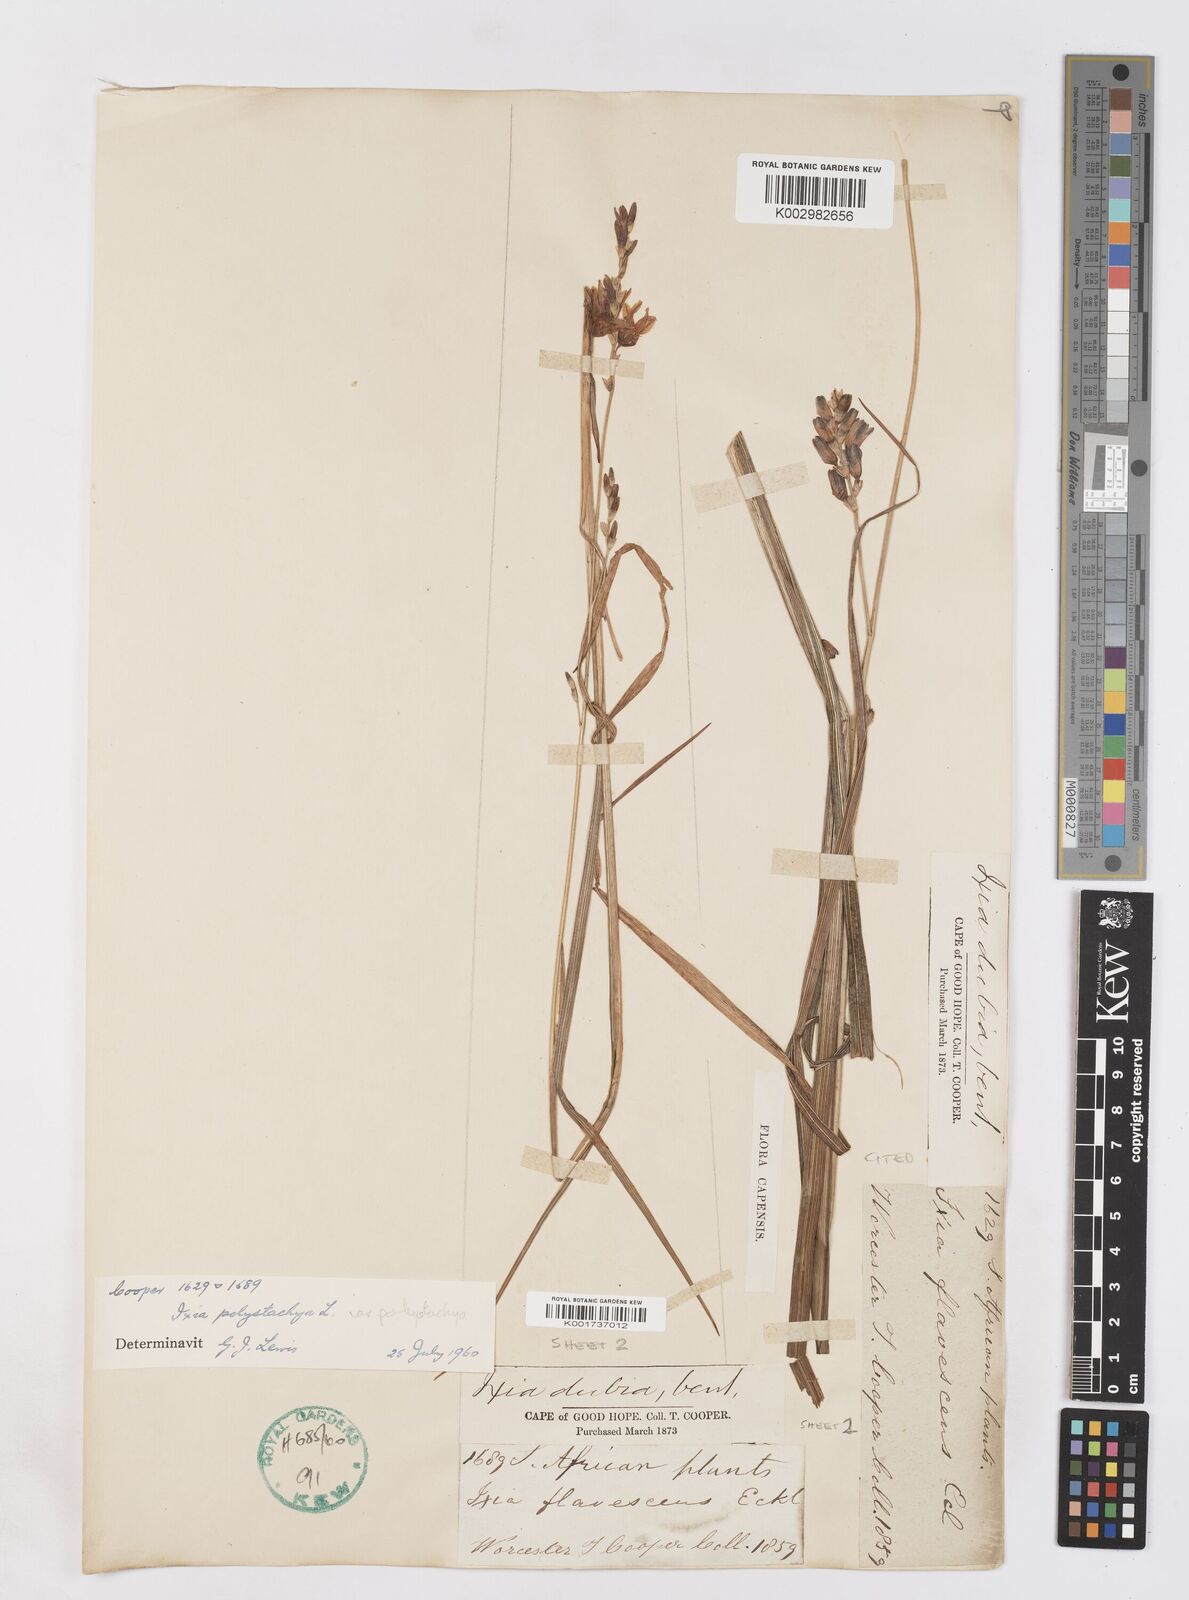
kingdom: Plantae
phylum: Tracheophyta
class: Liliopsida
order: Asparagales
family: Iridaceae
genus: Ixia
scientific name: Ixia polystachya
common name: White-and-yellow-flower cornlily
